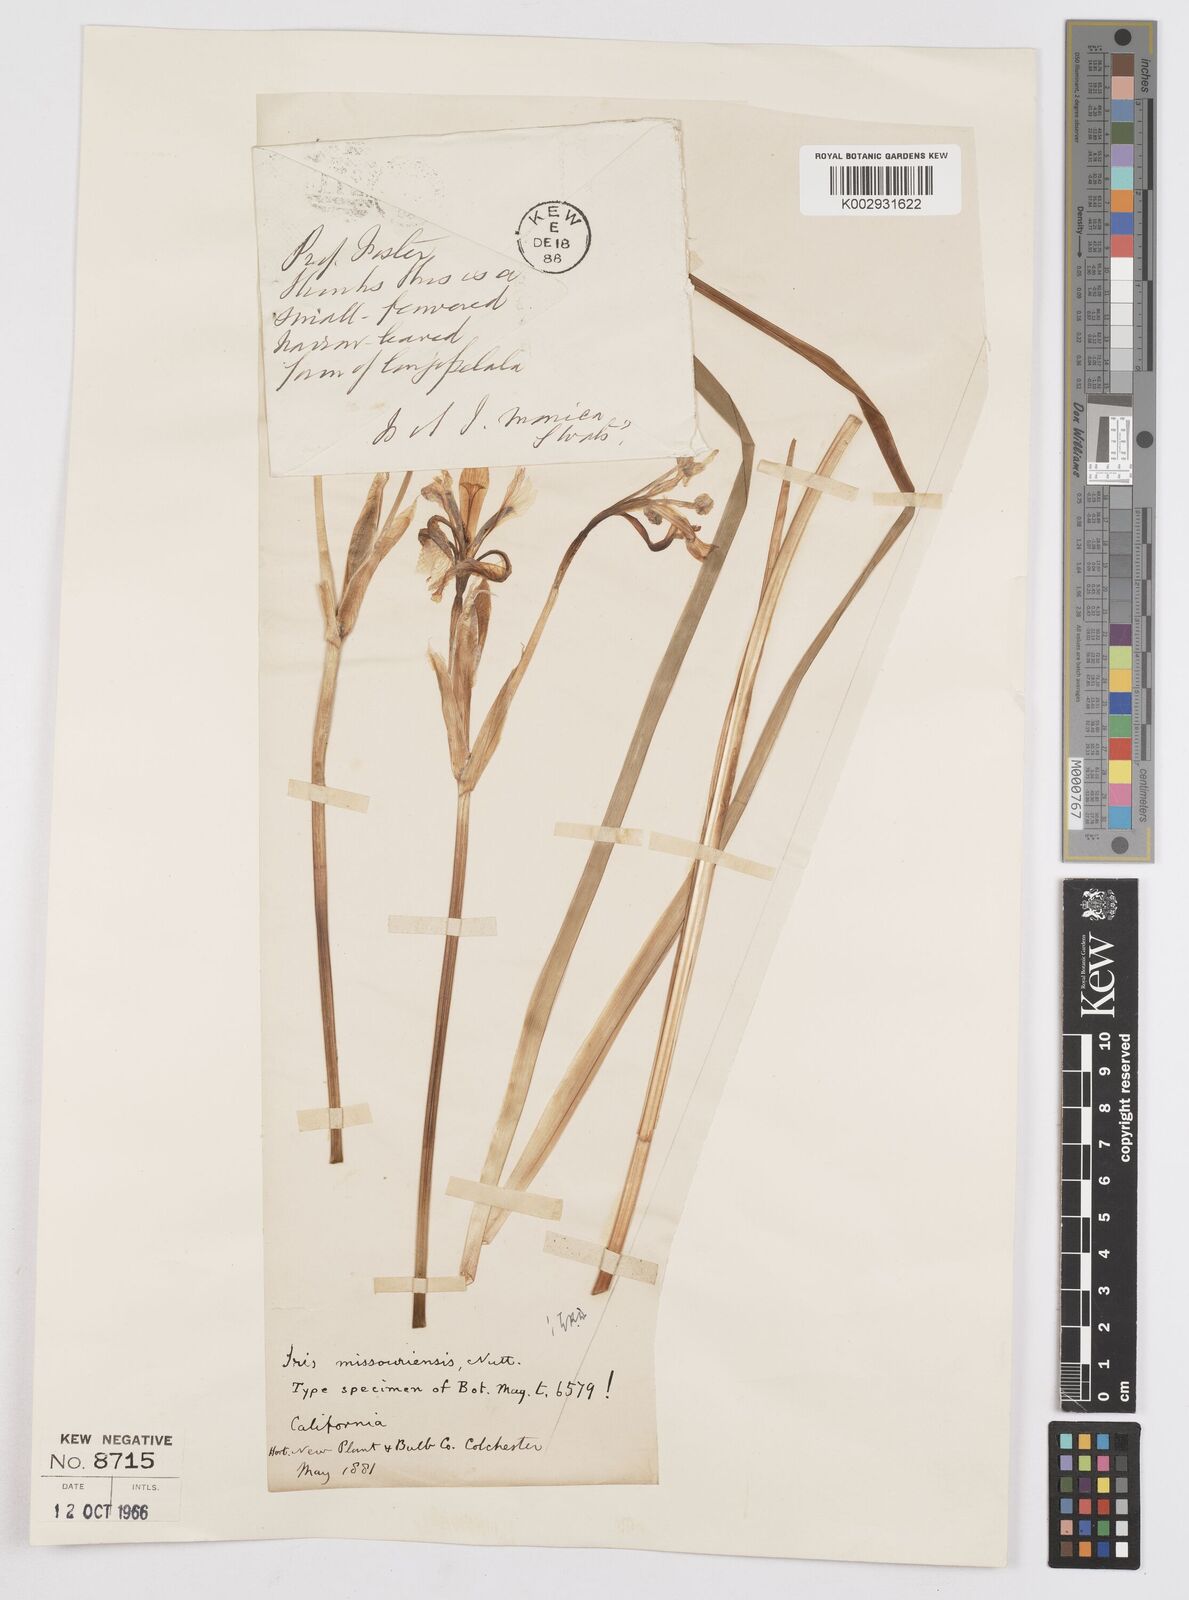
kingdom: Plantae
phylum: Tracheophyta
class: Liliopsida
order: Asparagales
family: Iridaceae
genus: Iris
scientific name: Iris missouriensis
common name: Rocky mountain iris
